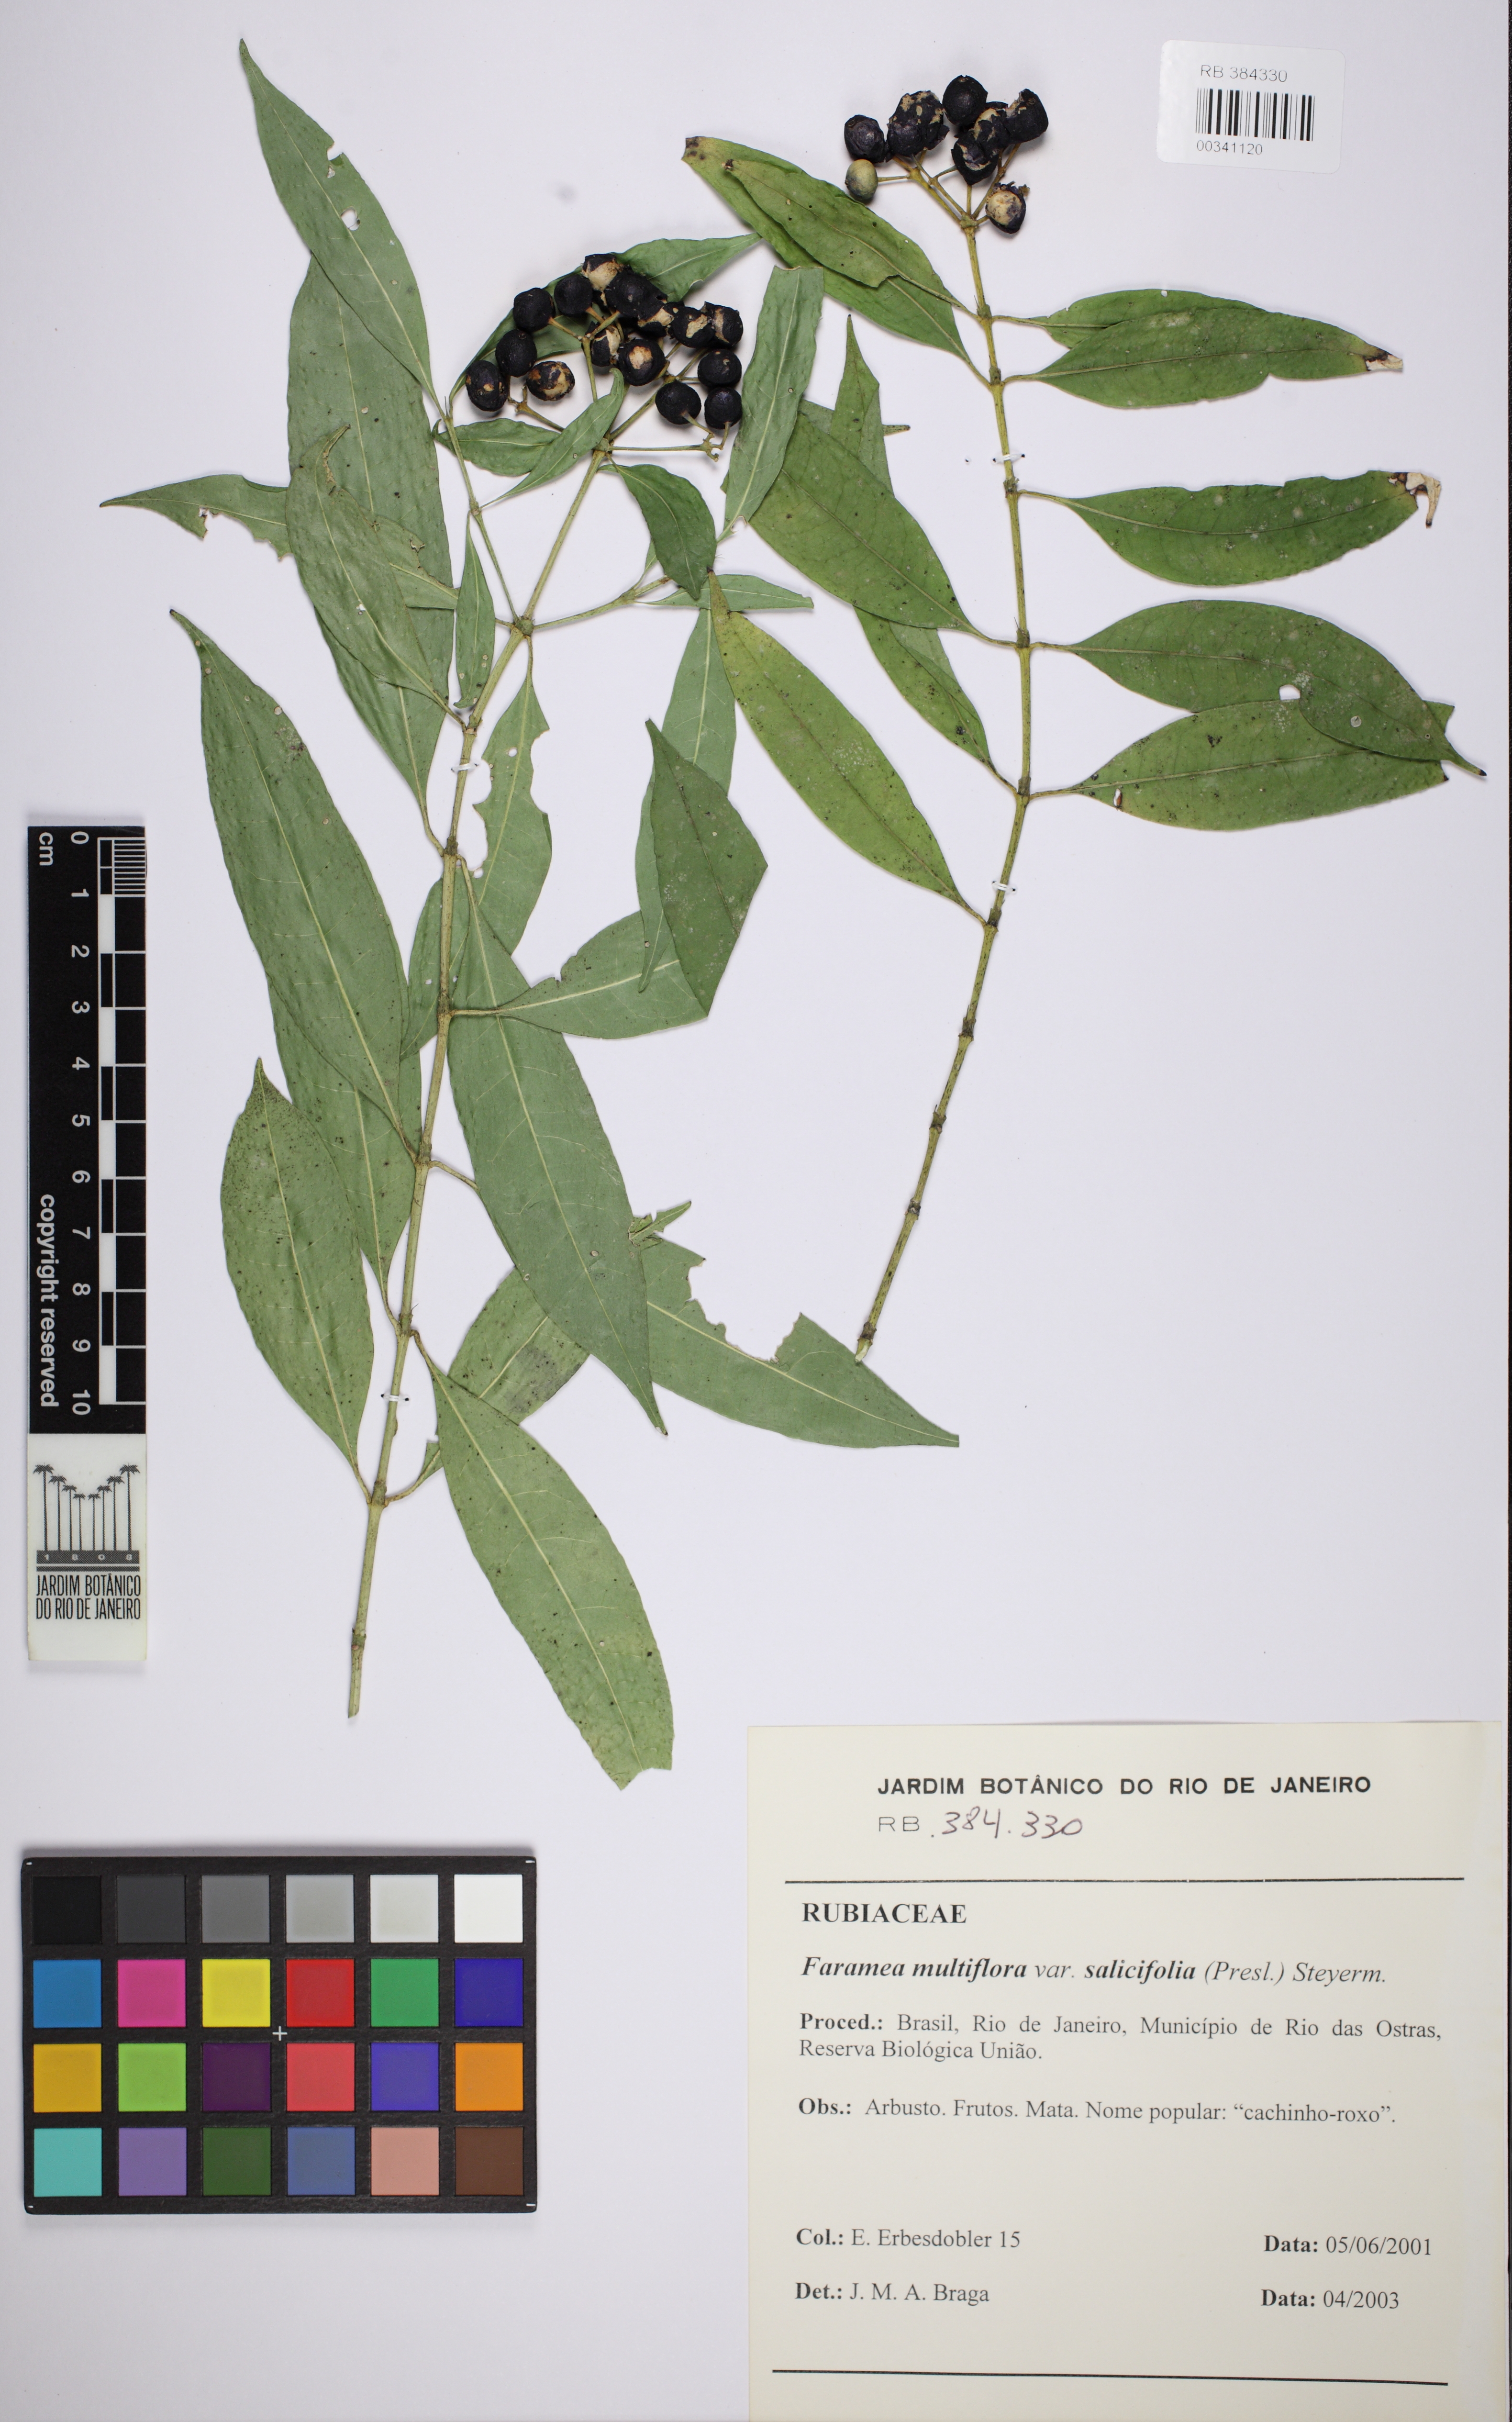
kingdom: Plantae
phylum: Tracheophyta
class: Magnoliopsida
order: Gentianales
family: Rubiaceae
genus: Faramea
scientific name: Faramea multiflora
